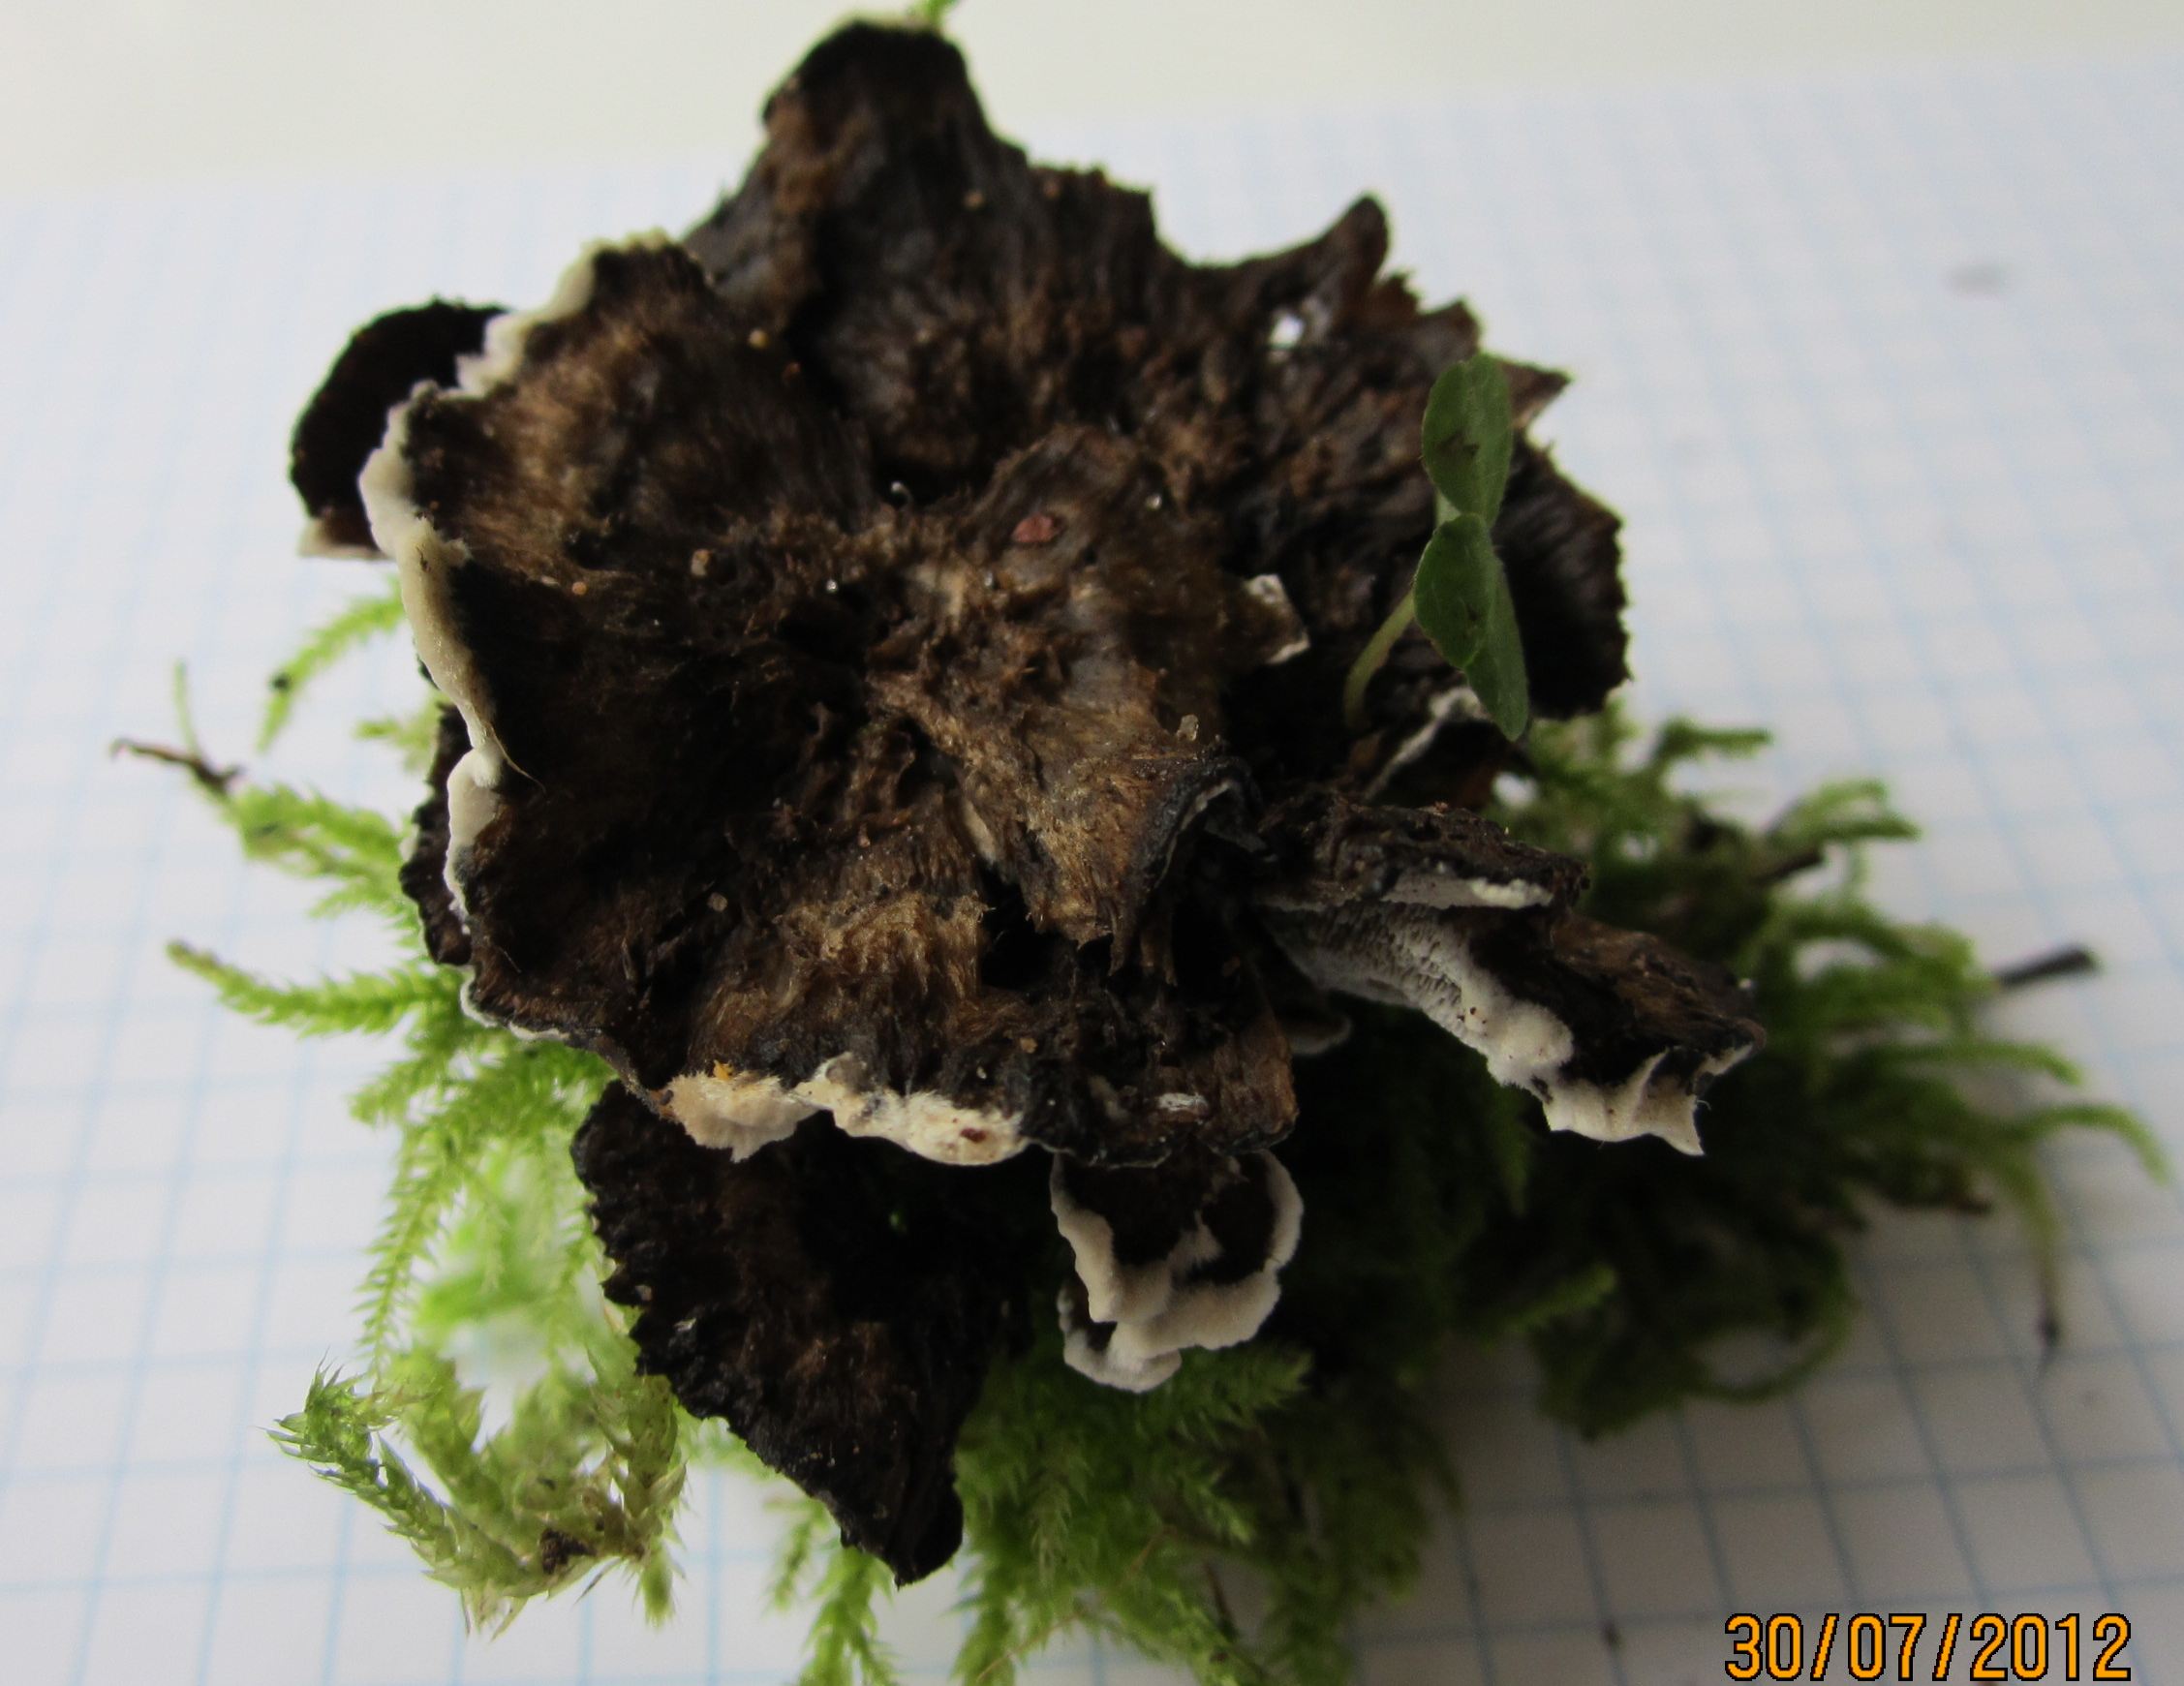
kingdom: Fungi
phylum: Basidiomycota
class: Agaricomycetes
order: Polyporales
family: Phanerochaetaceae
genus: Bjerkandera
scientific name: Bjerkandera adusta
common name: sveden sodporesvamp
